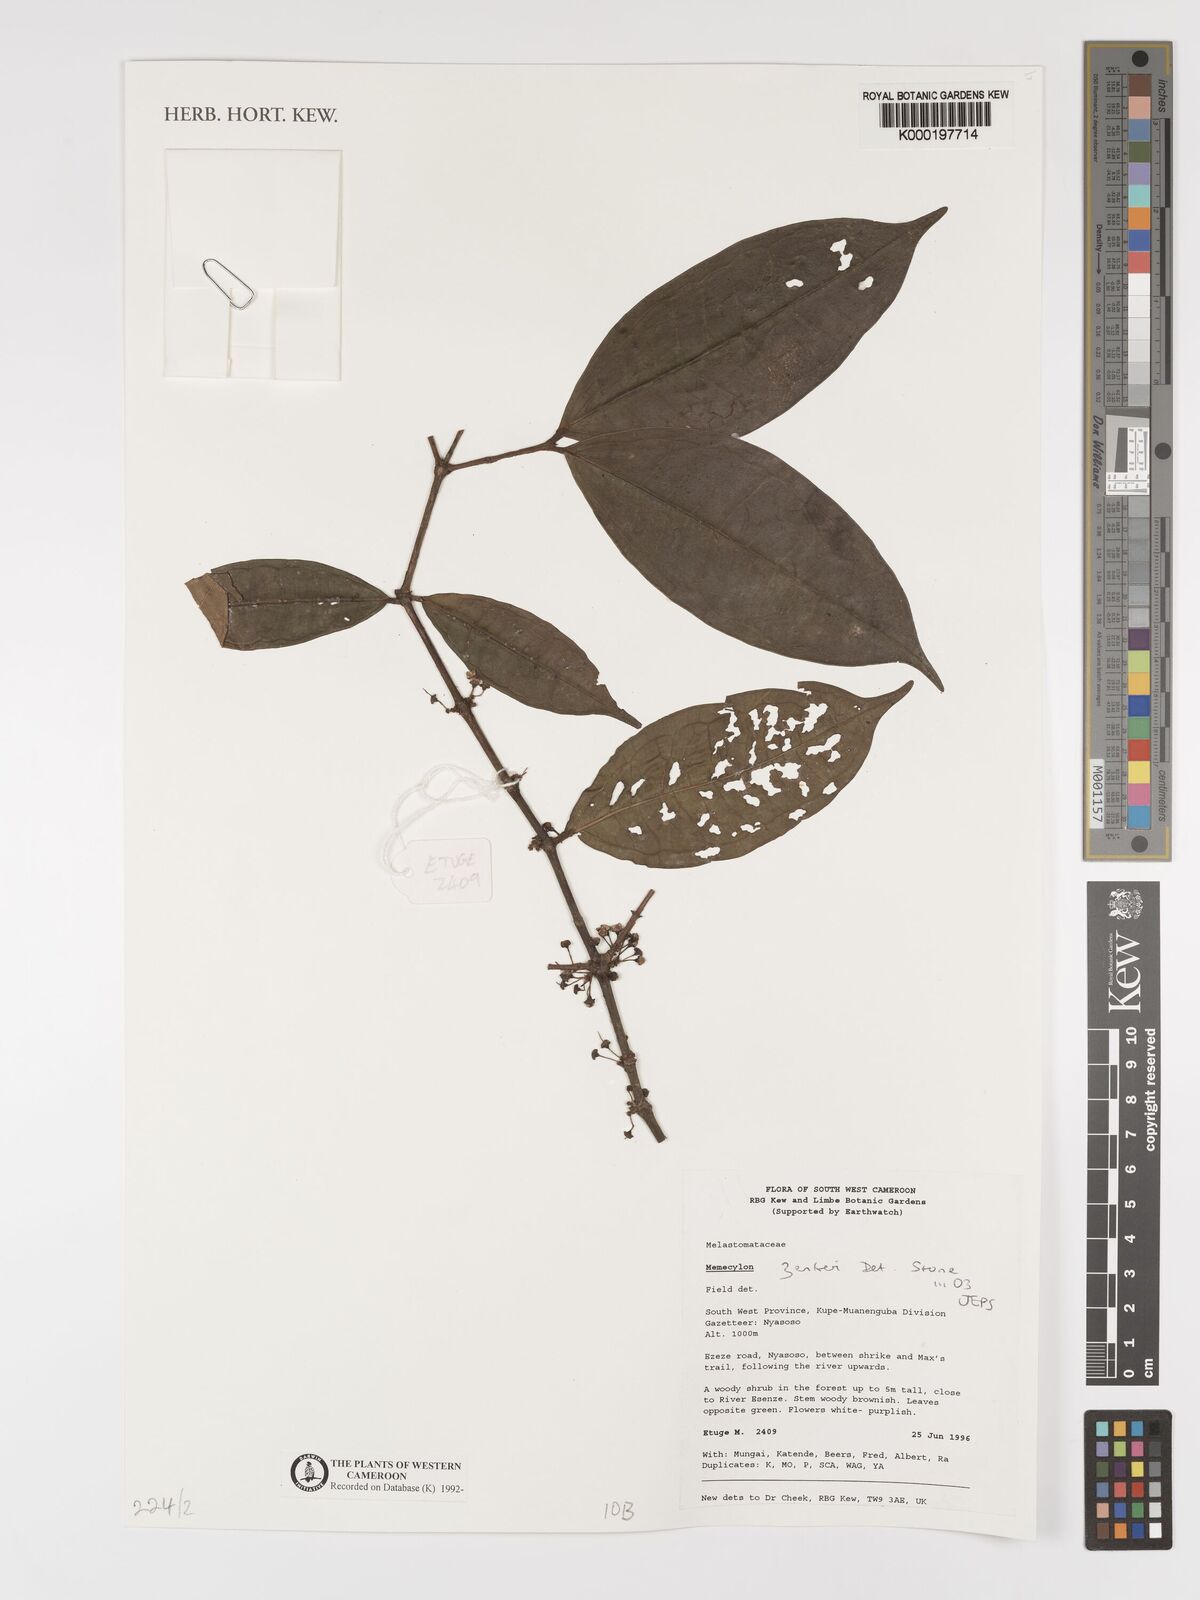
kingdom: Plantae
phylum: Tracheophyta
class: Magnoliopsida
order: Myrtales
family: Melastomataceae
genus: Memecylon
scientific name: Memecylon zenkeri
